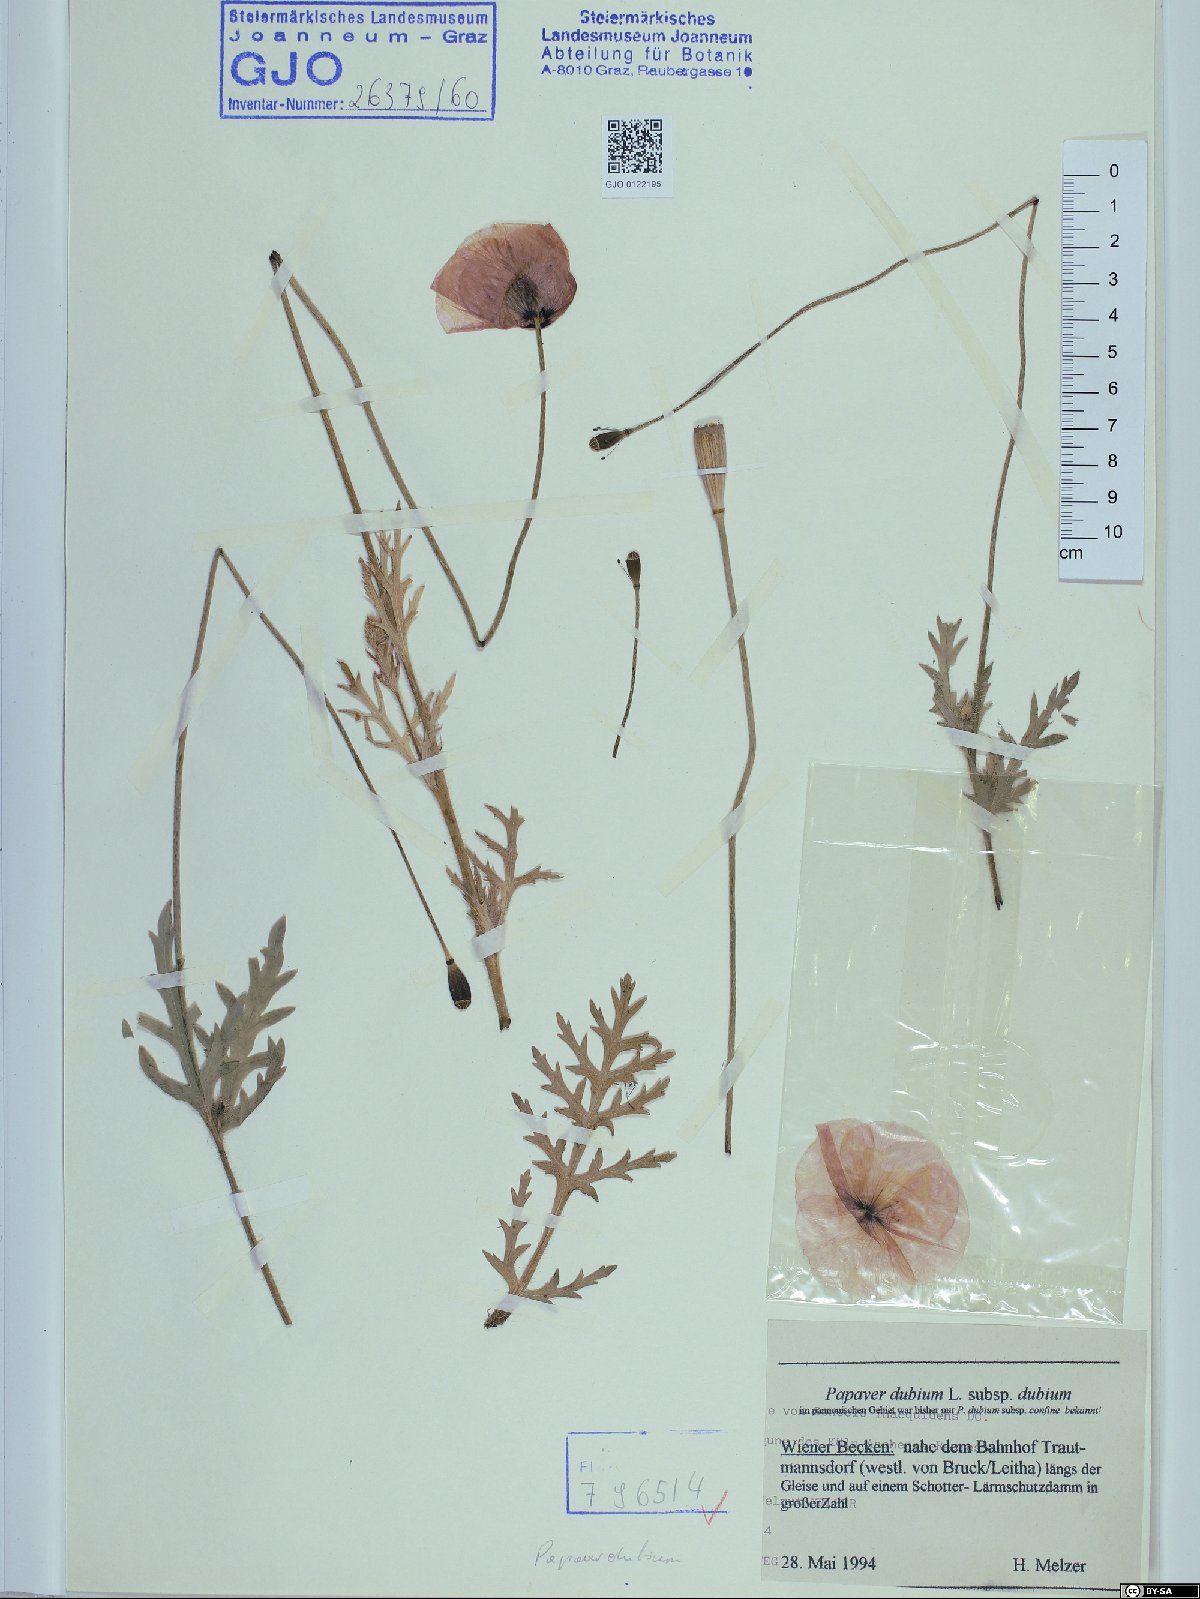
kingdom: Plantae
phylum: Tracheophyta
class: Magnoliopsida
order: Ranunculales
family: Papaveraceae
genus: Papaver
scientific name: Papaver dubium
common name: Long-headed poppy
